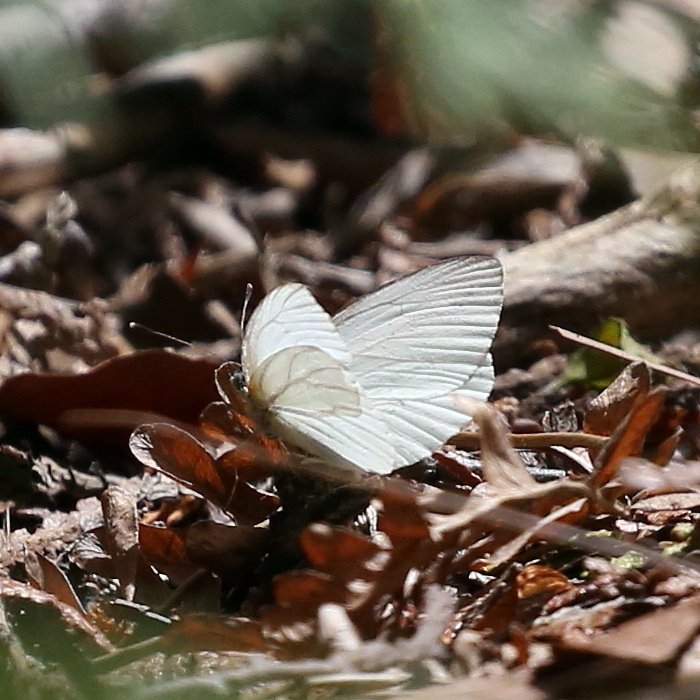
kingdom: Animalia
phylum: Arthropoda
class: Insecta
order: Lepidoptera
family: Pieridae
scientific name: Pieridae
